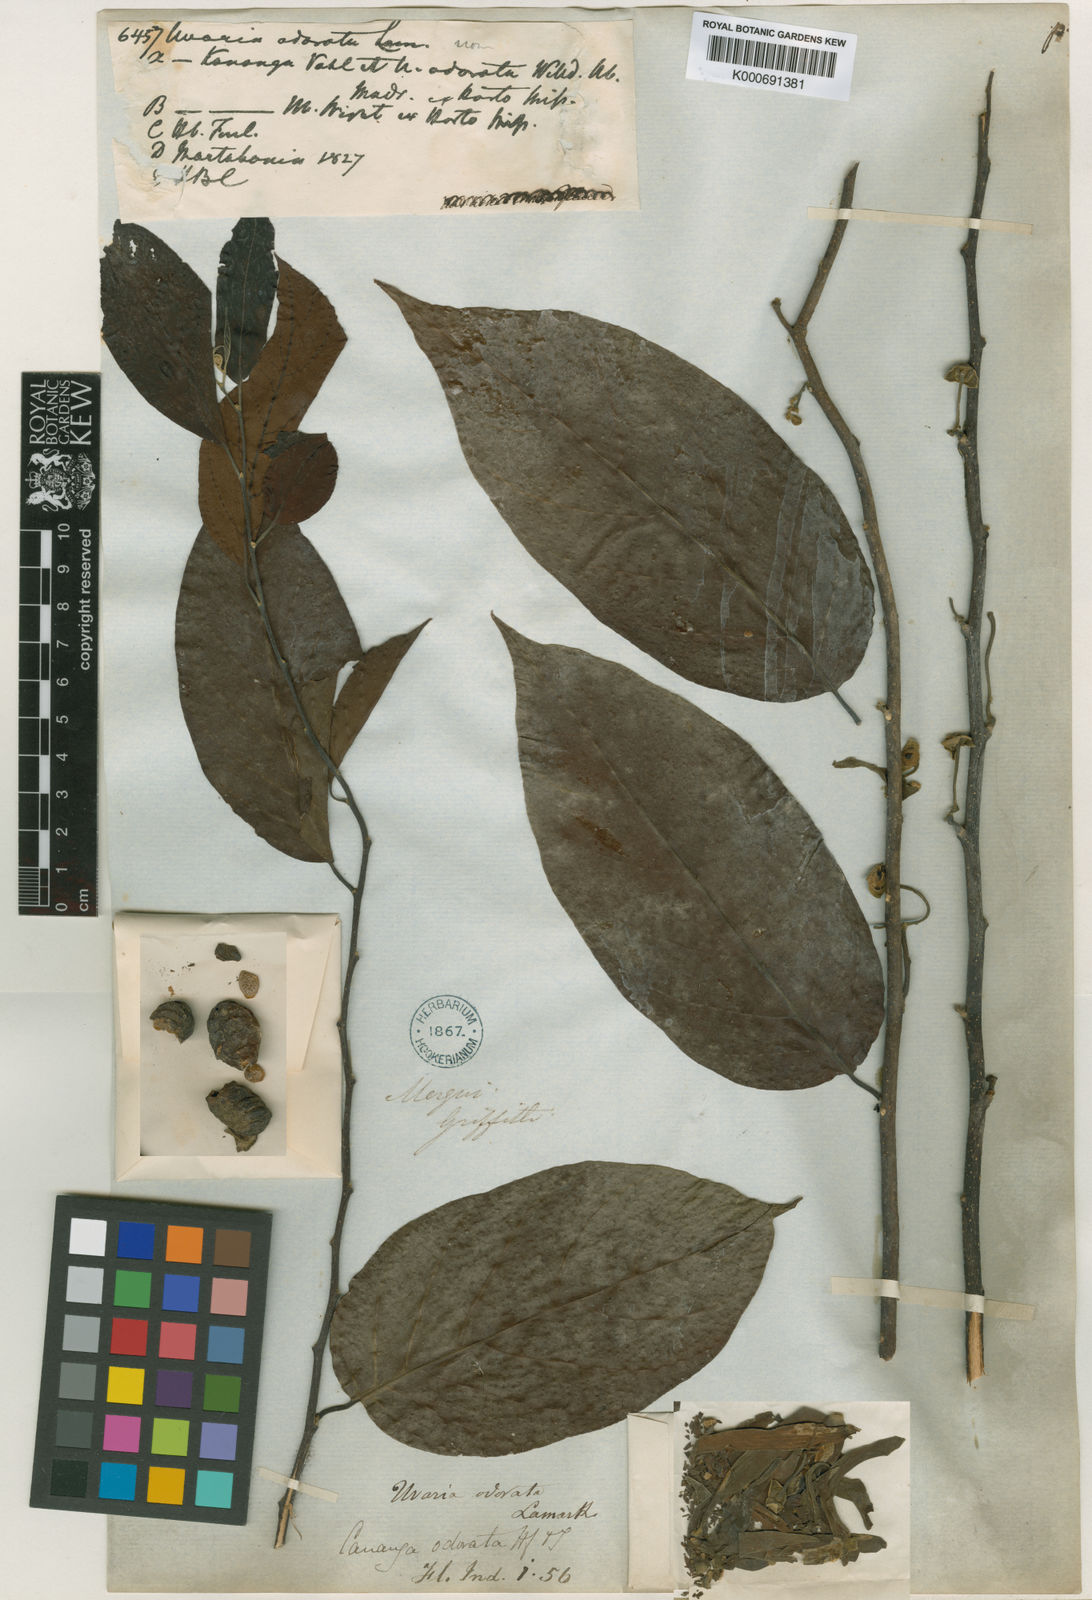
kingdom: Plantae
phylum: Tracheophyta
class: Magnoliopsida
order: Magnoliales
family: Annonaceae
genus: Cananga
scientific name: Cananga odorata
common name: Cananga tree
